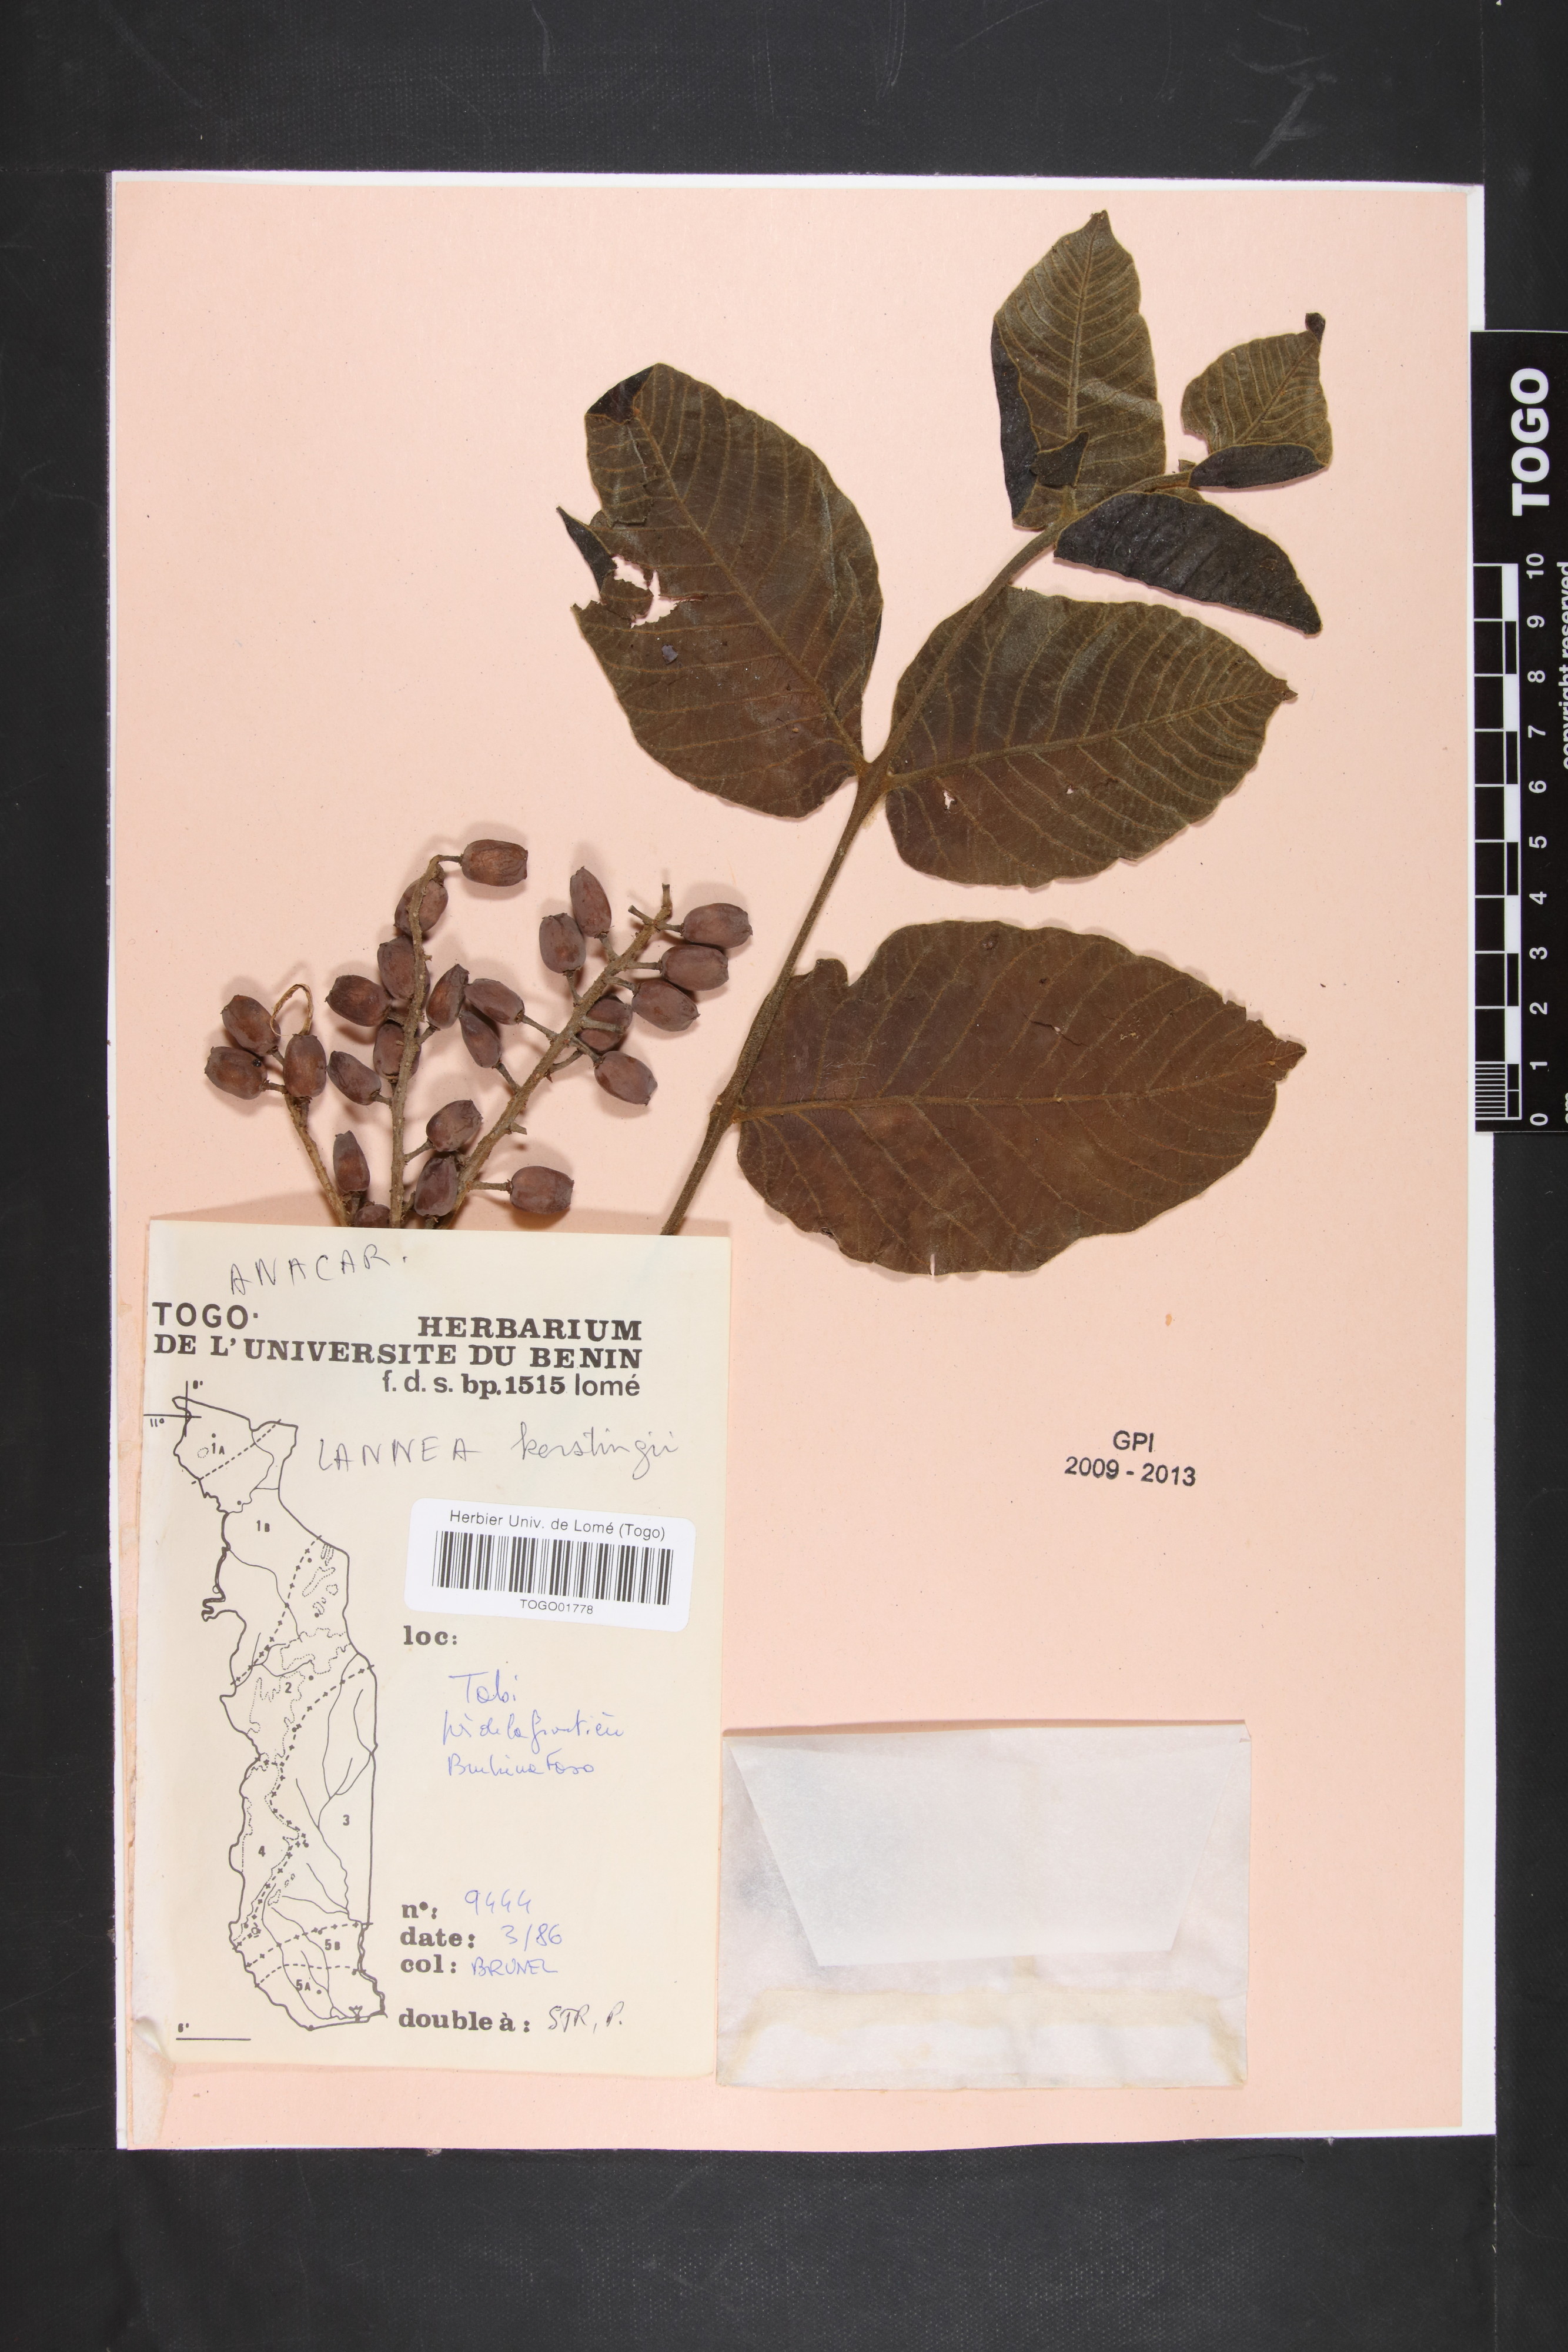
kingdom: Plantae
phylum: Tracheophyta
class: Magnoliopsida
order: Sapindales
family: Anacardiaceae
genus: Lannea
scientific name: Lannea barteri
